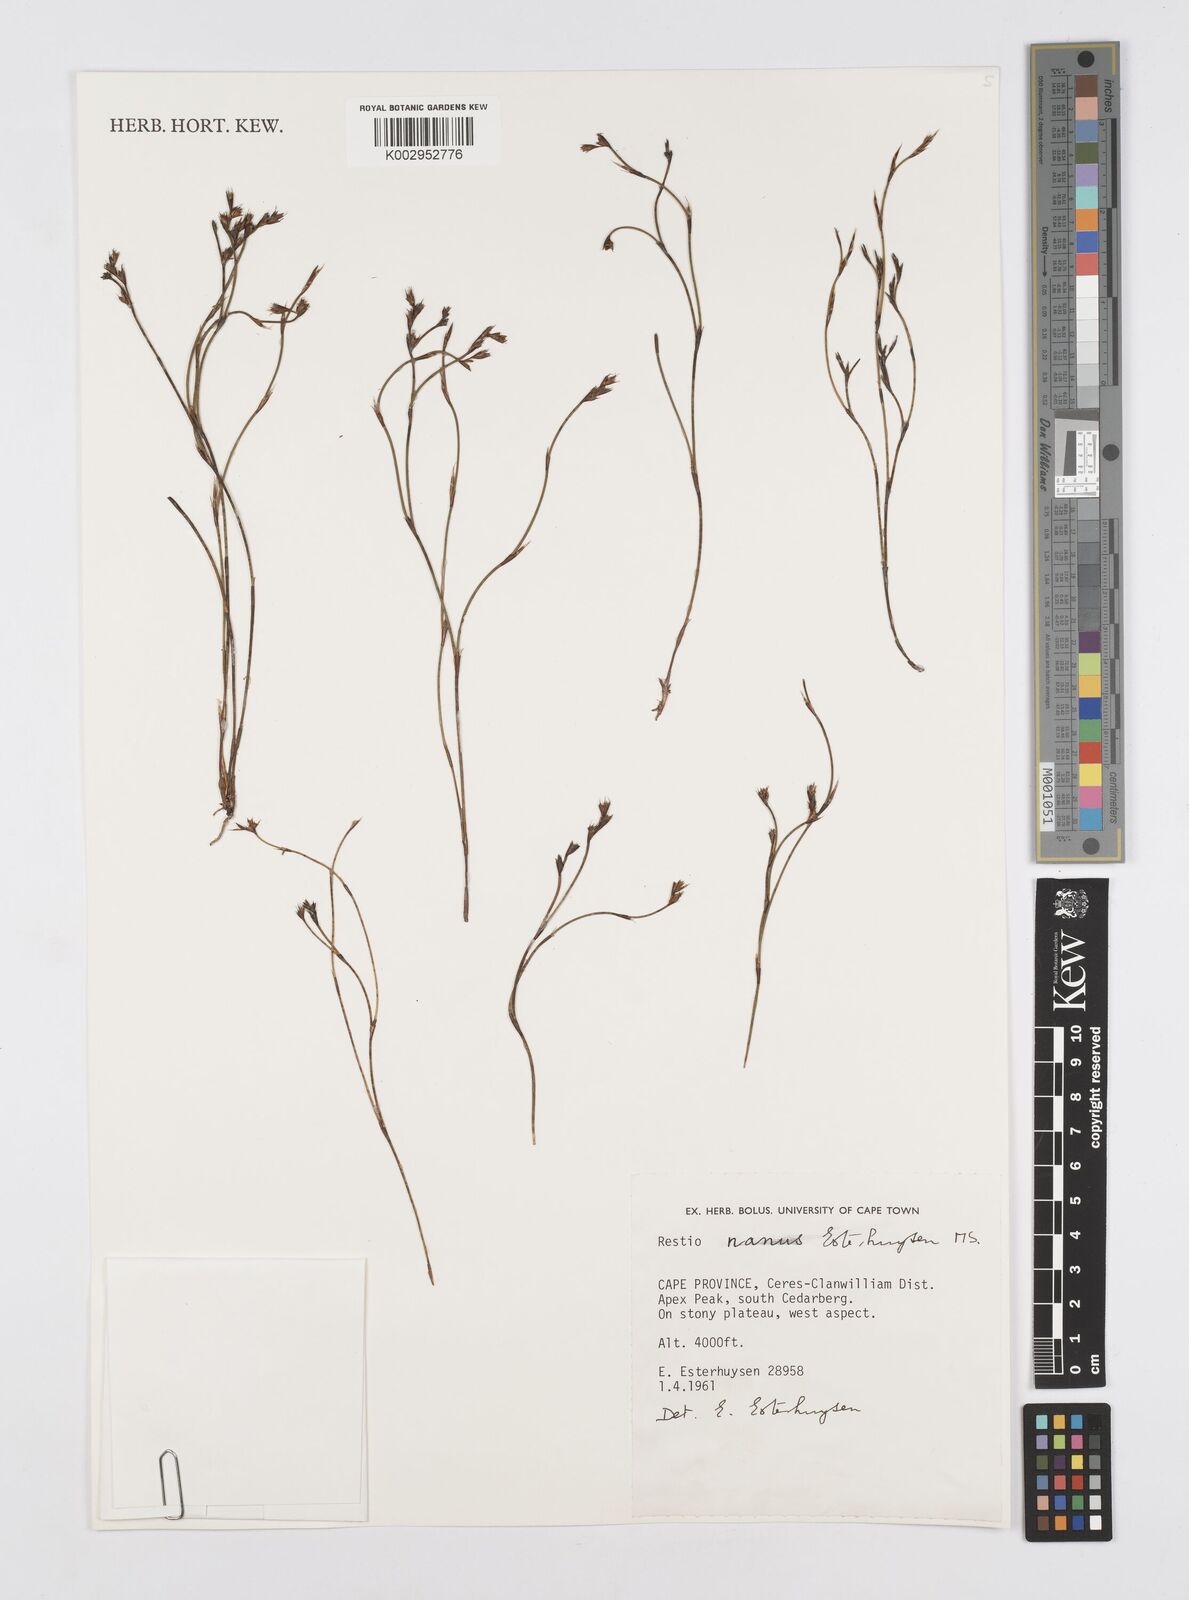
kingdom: Plantae
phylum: Tracheophyta
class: Liliopsida
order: Poales
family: Restionaceae
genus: Restio
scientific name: Restio nanus
